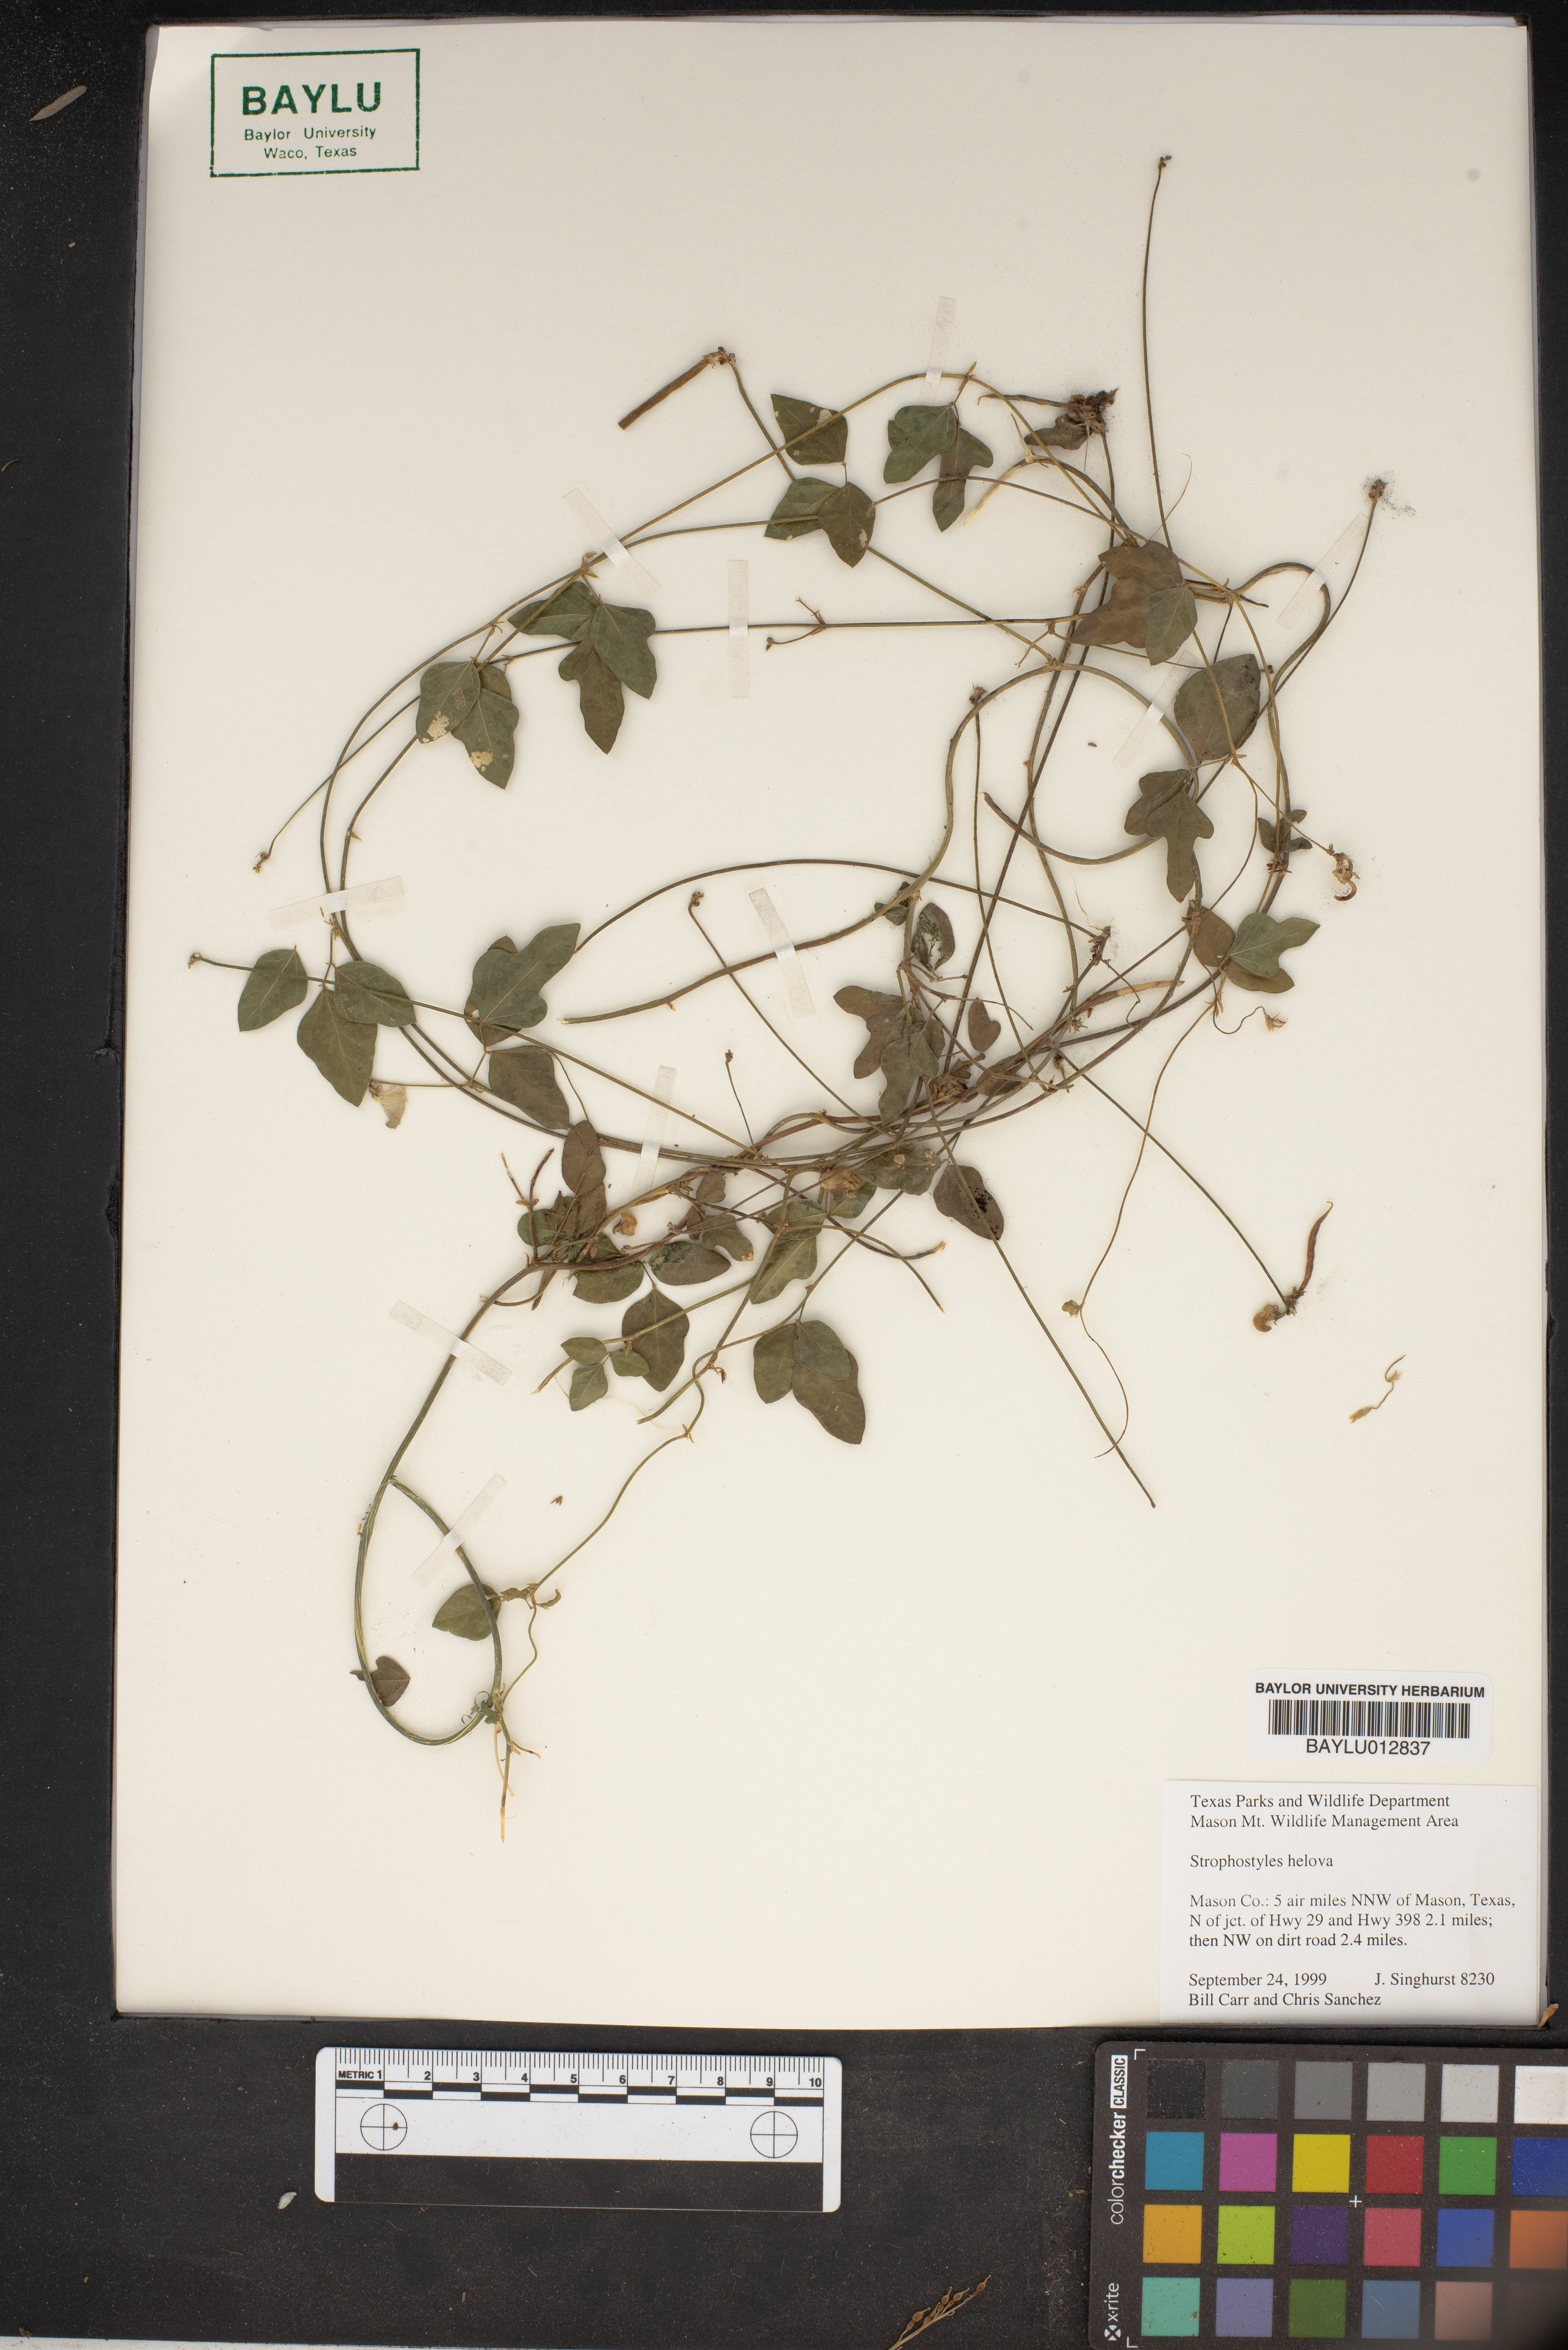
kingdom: Plantae
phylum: Tracheophyta
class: Magnoliopsida
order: Fabales
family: Fabaceae
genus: Strophostyles
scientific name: Strophostyles helvola
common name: Trailing wild bean
